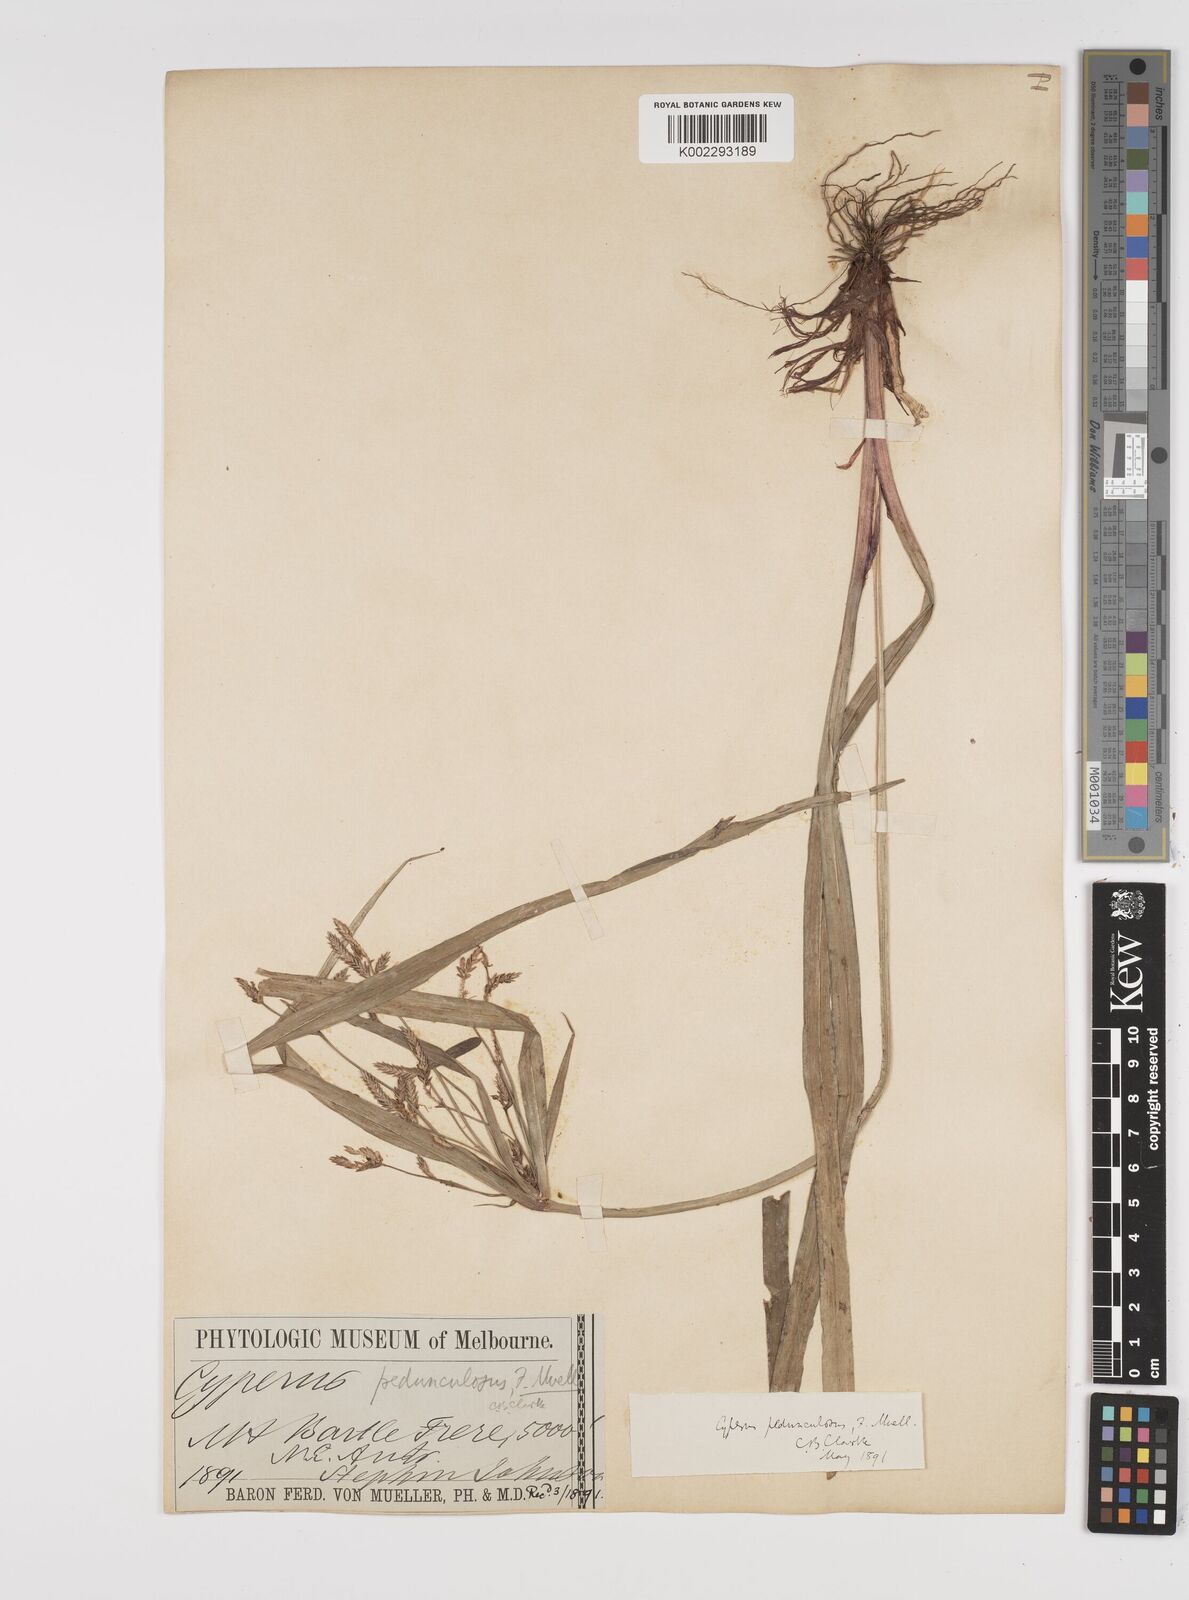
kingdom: Plantae
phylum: Tracheophyta
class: Liliopsida
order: Poales
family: Cyperaceae
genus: Cyperus
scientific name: Cyperus pedunculosus
